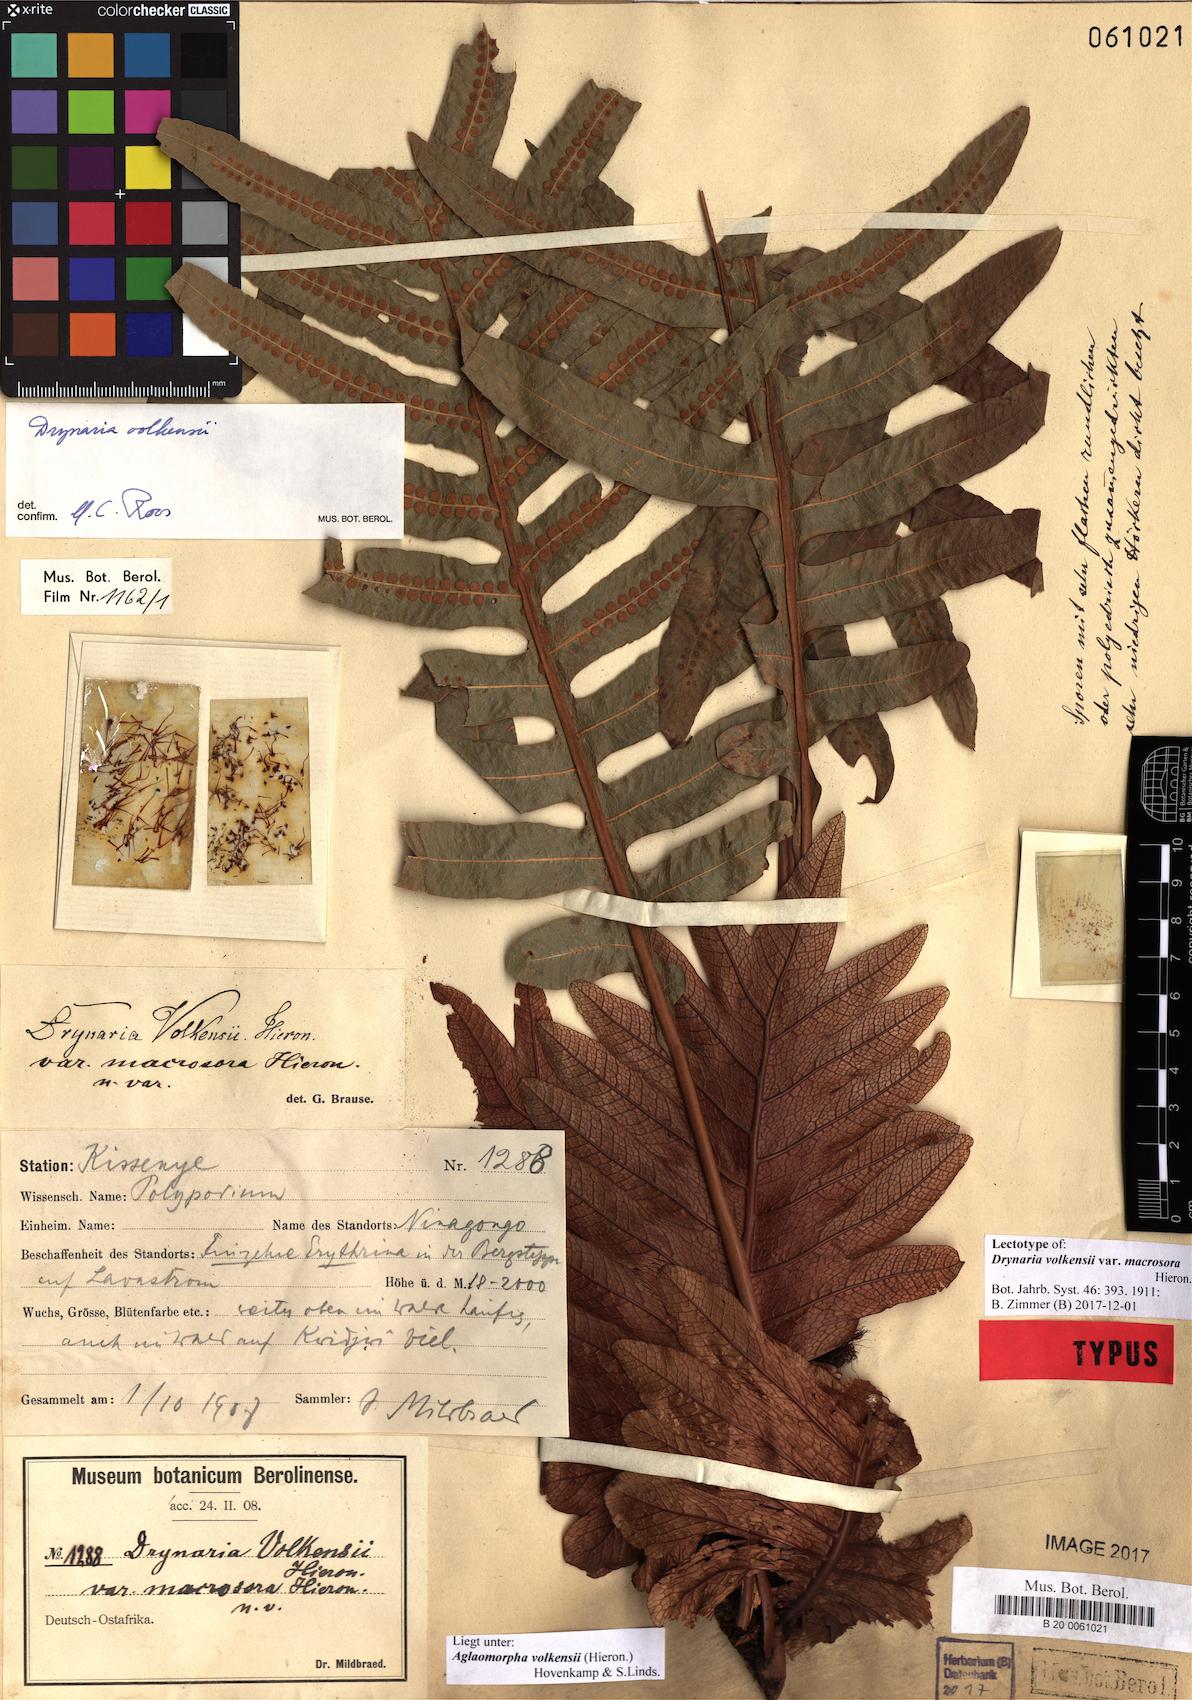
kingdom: Plantae
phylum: Tracheophyta
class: Polypodiopsida
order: Polypodiales
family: Polypodiaceae
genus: Drynaria
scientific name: Drynaria volkensii
